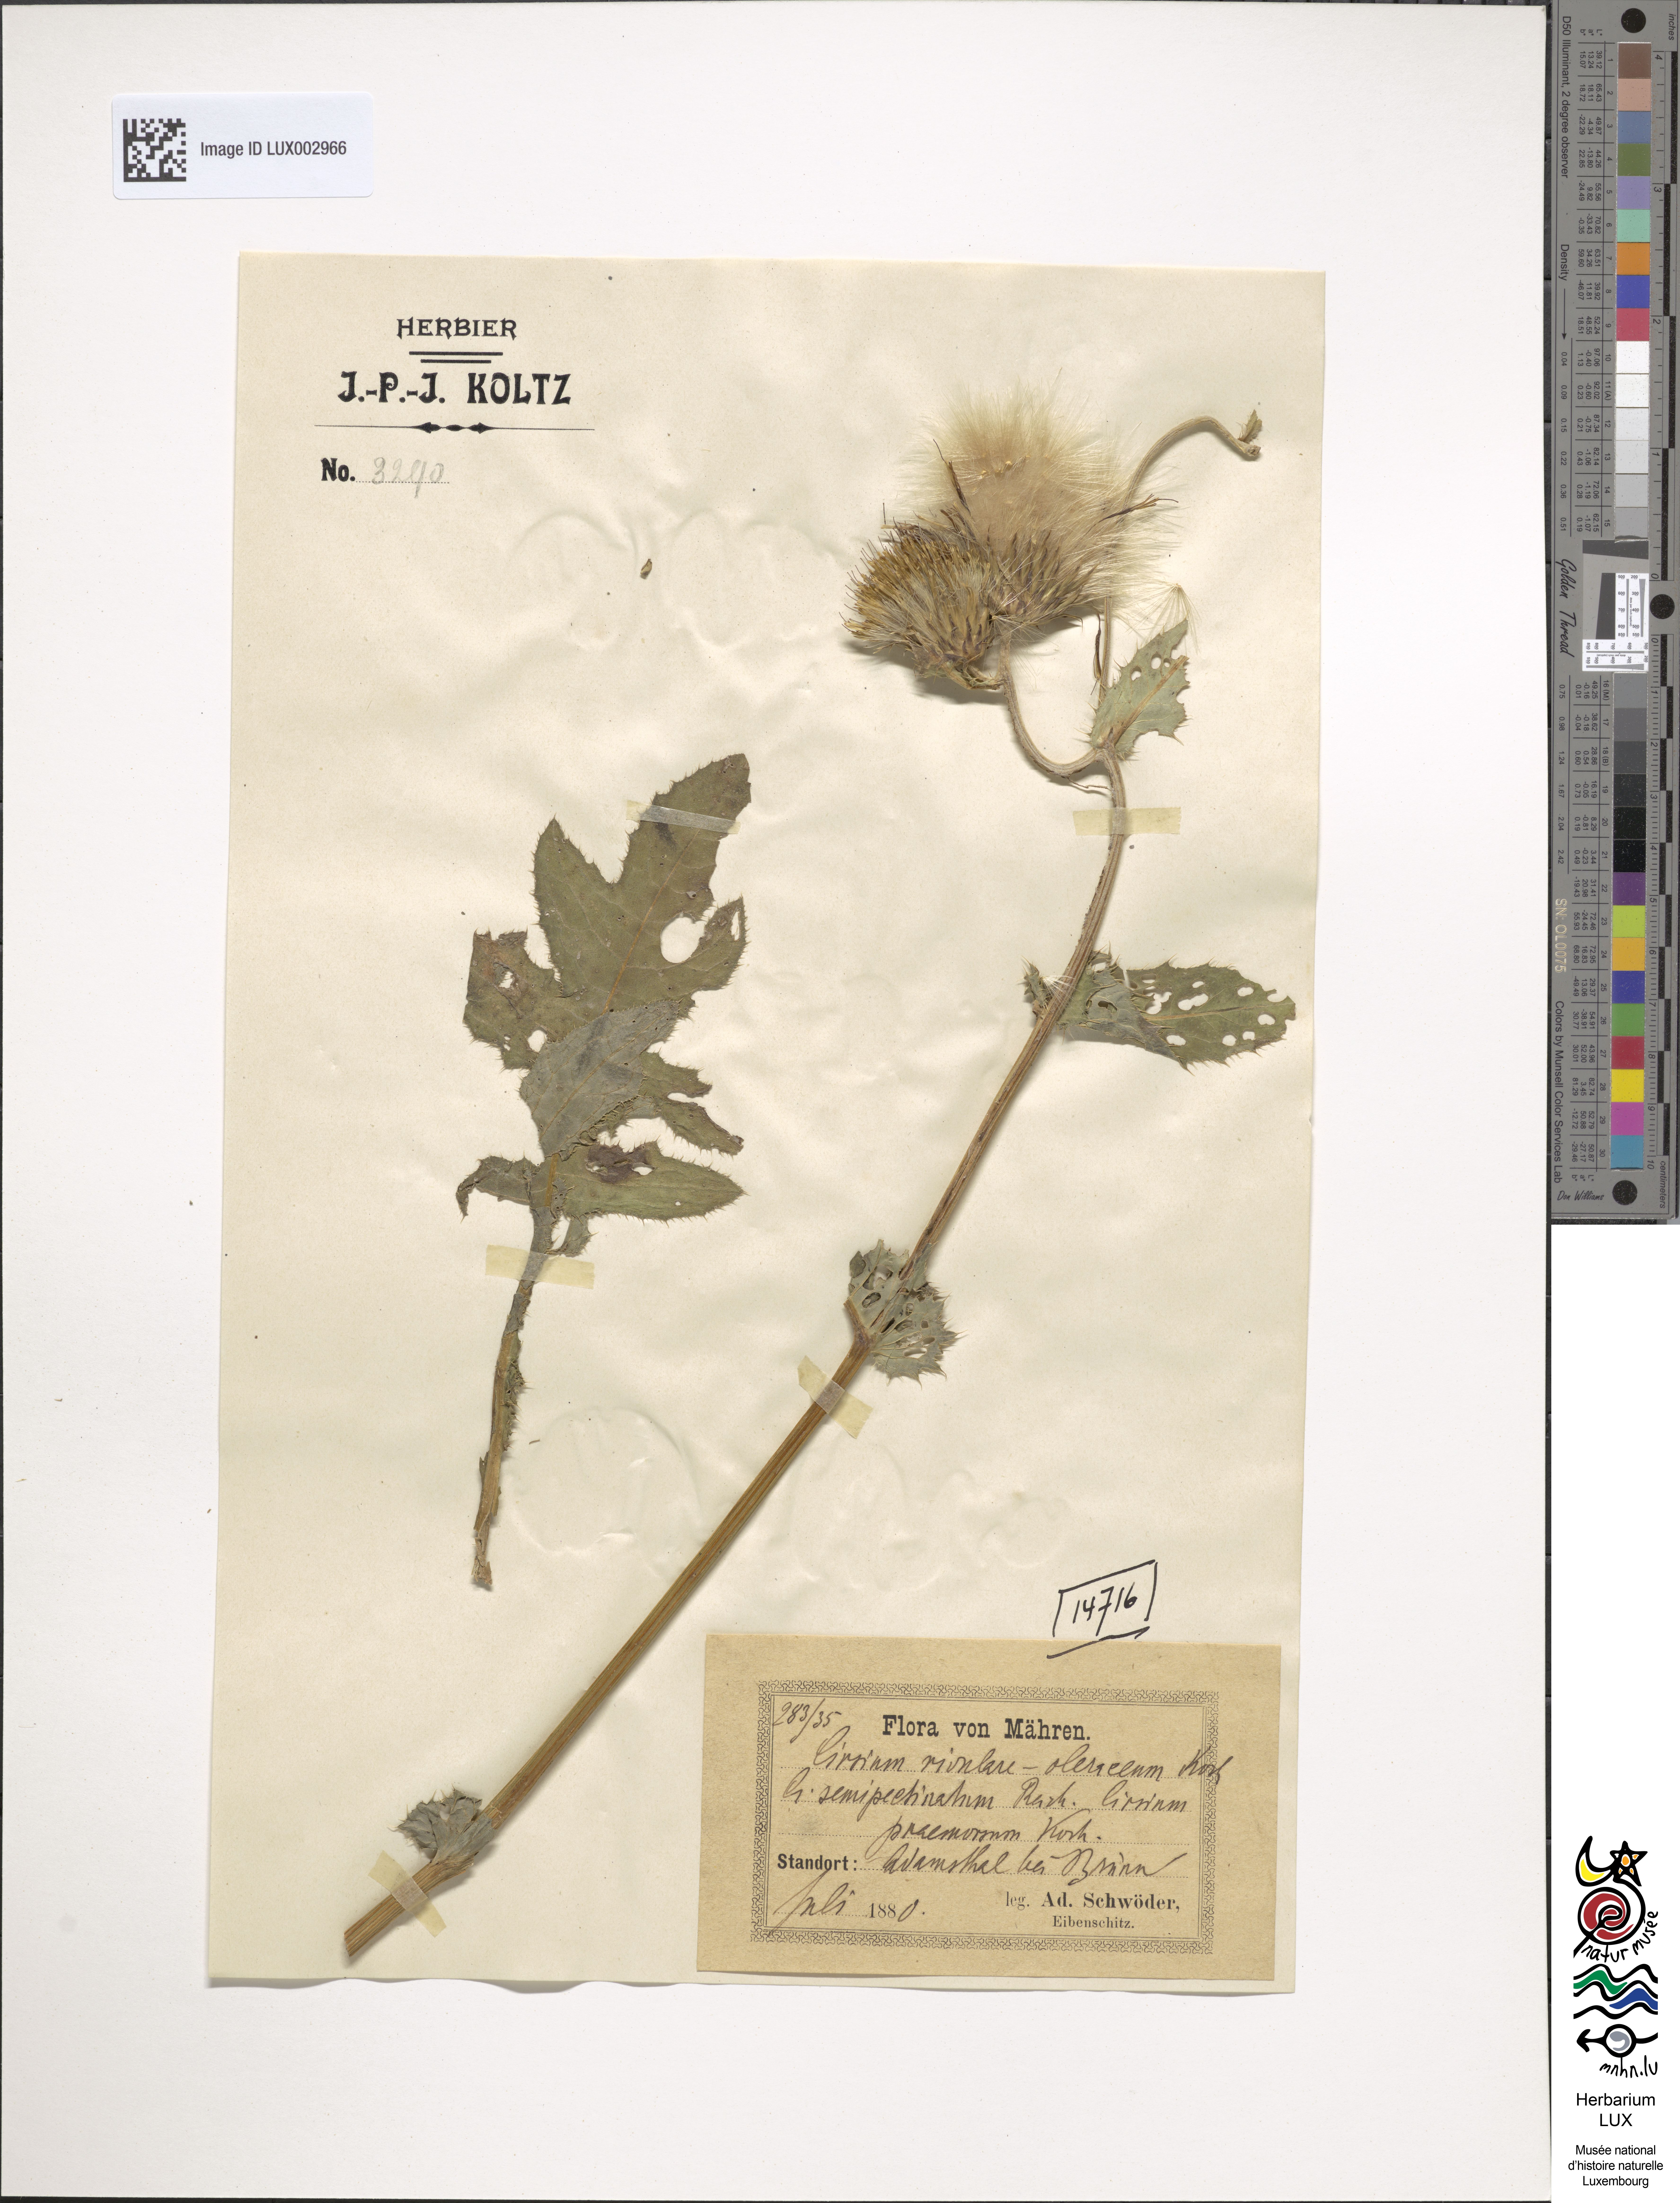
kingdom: Plantae
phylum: Tracheophyta
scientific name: Tracheophyta
